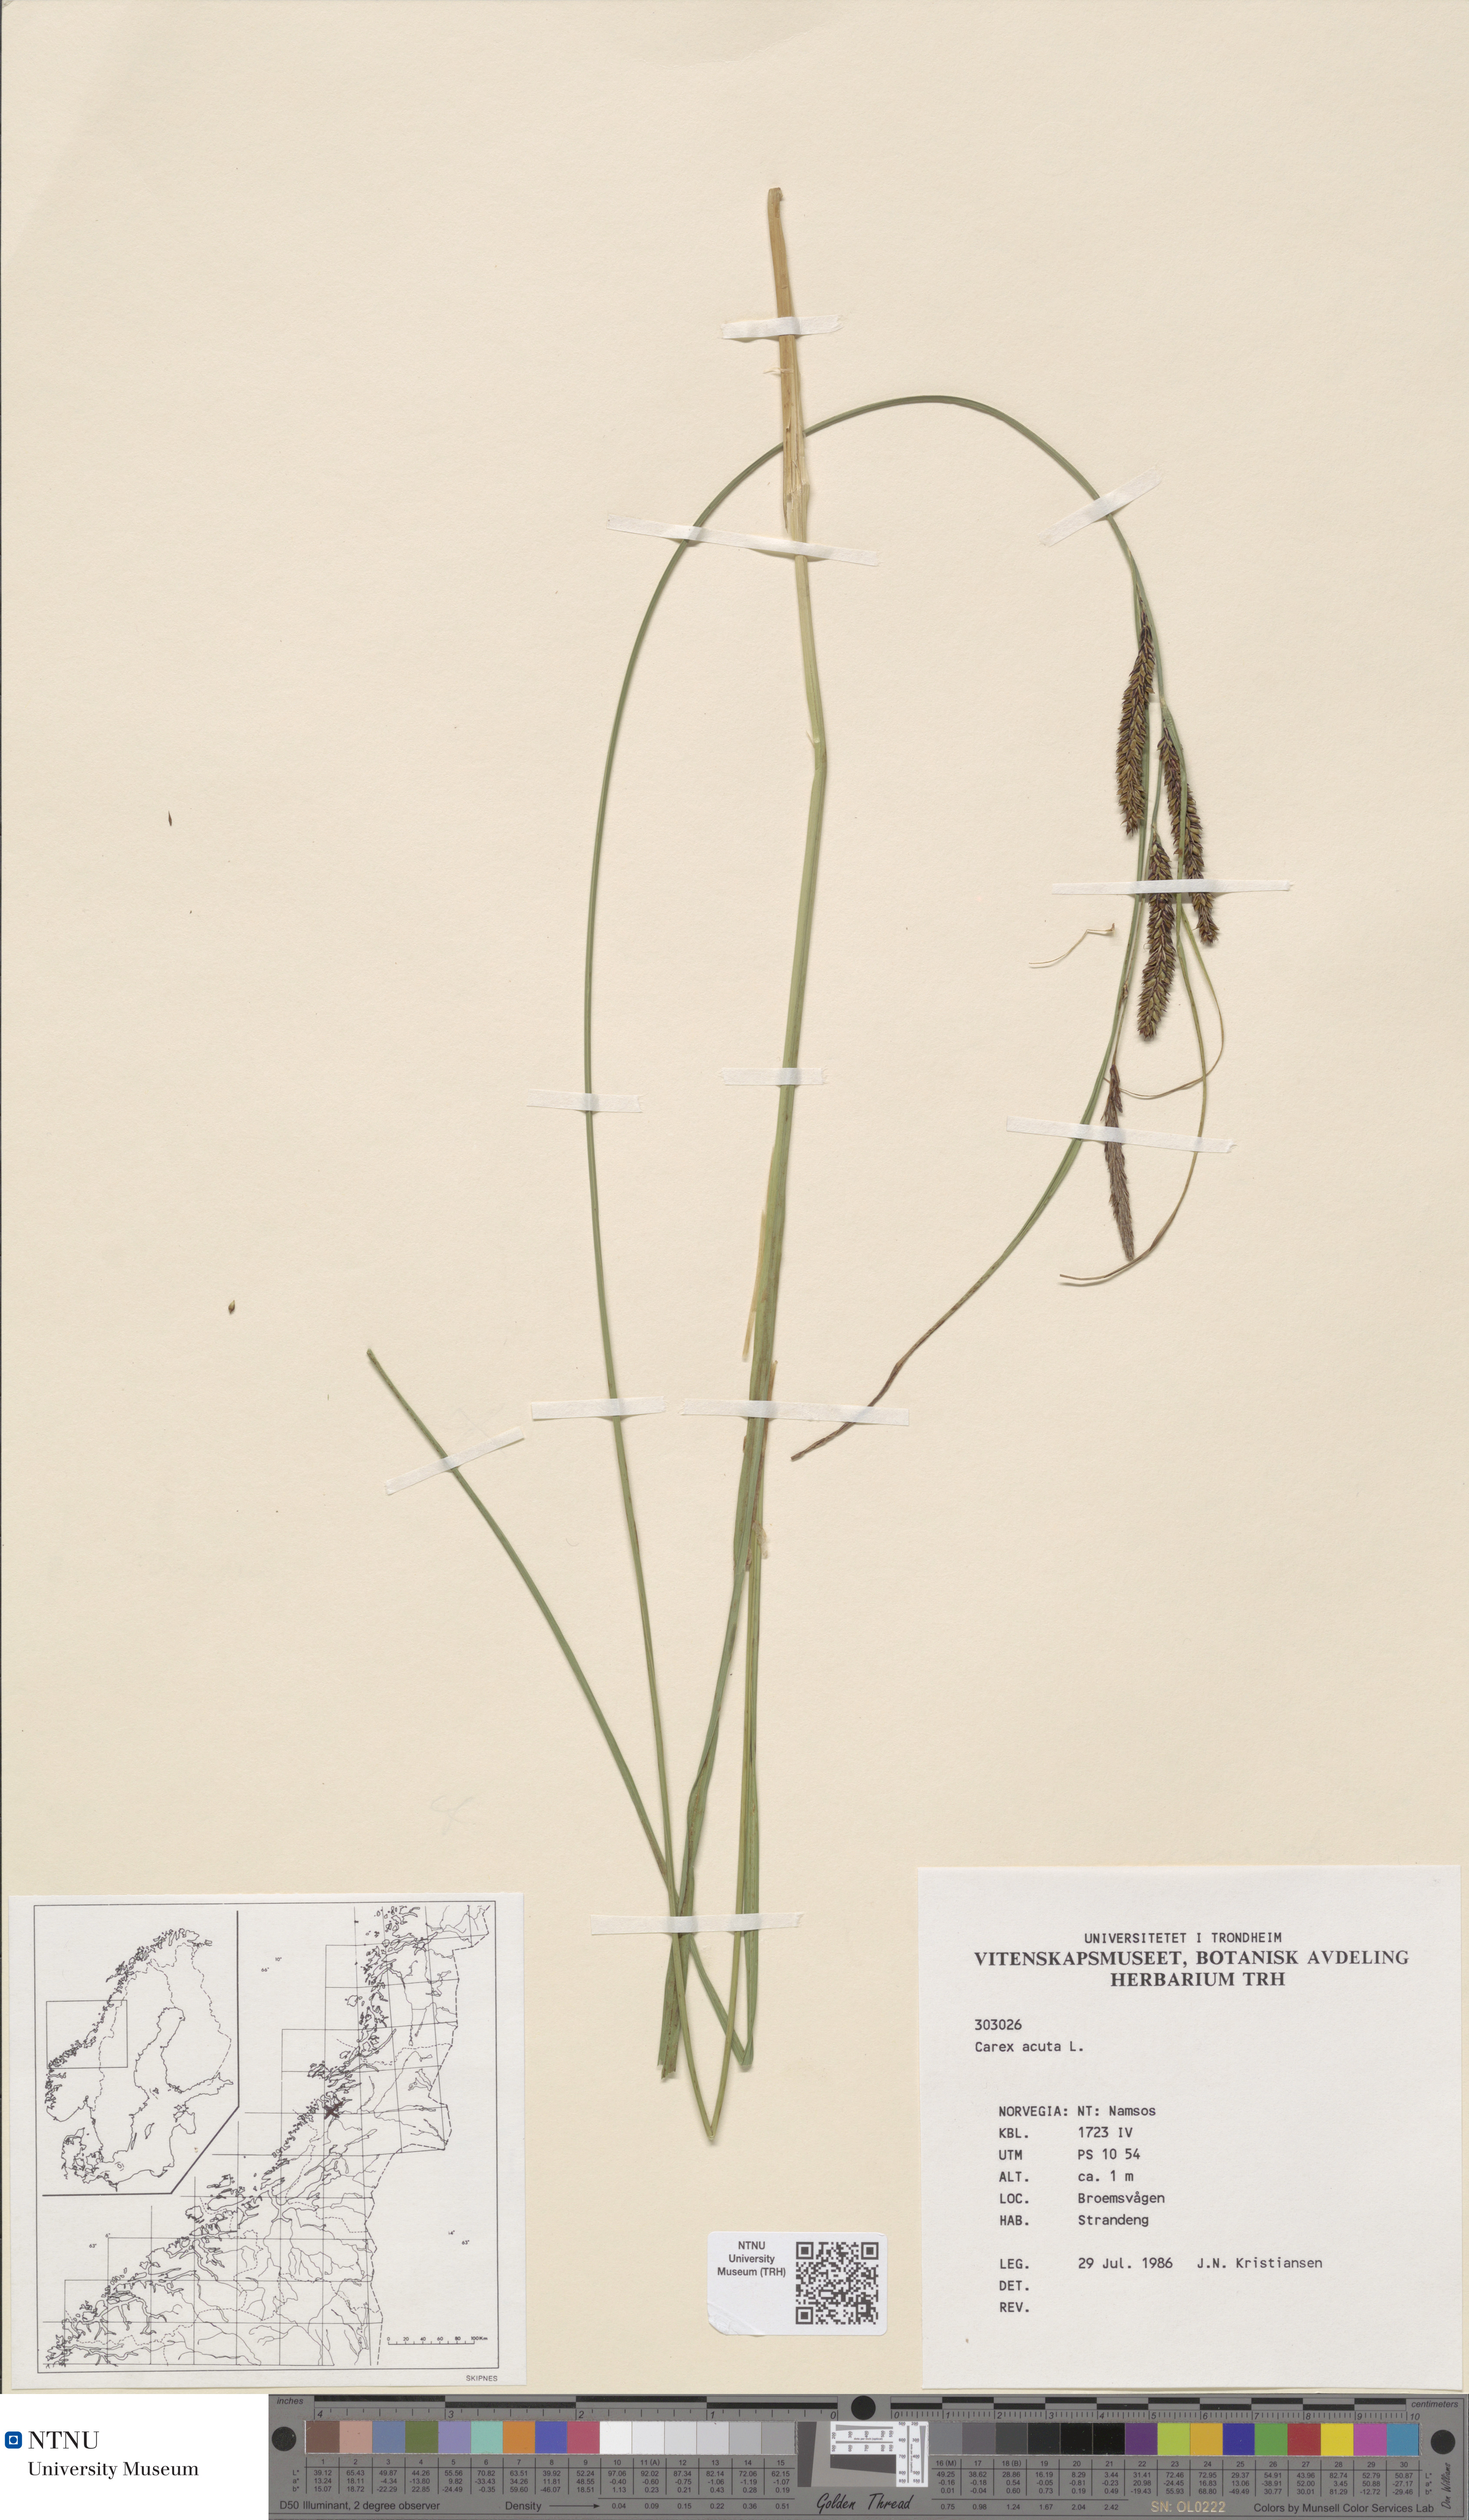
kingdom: Plantae
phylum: Tracheophyta
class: Liliopsida
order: Poales
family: Cyperaceae
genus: Carex
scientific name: Carex acuta
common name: Slender tufted-sedge
